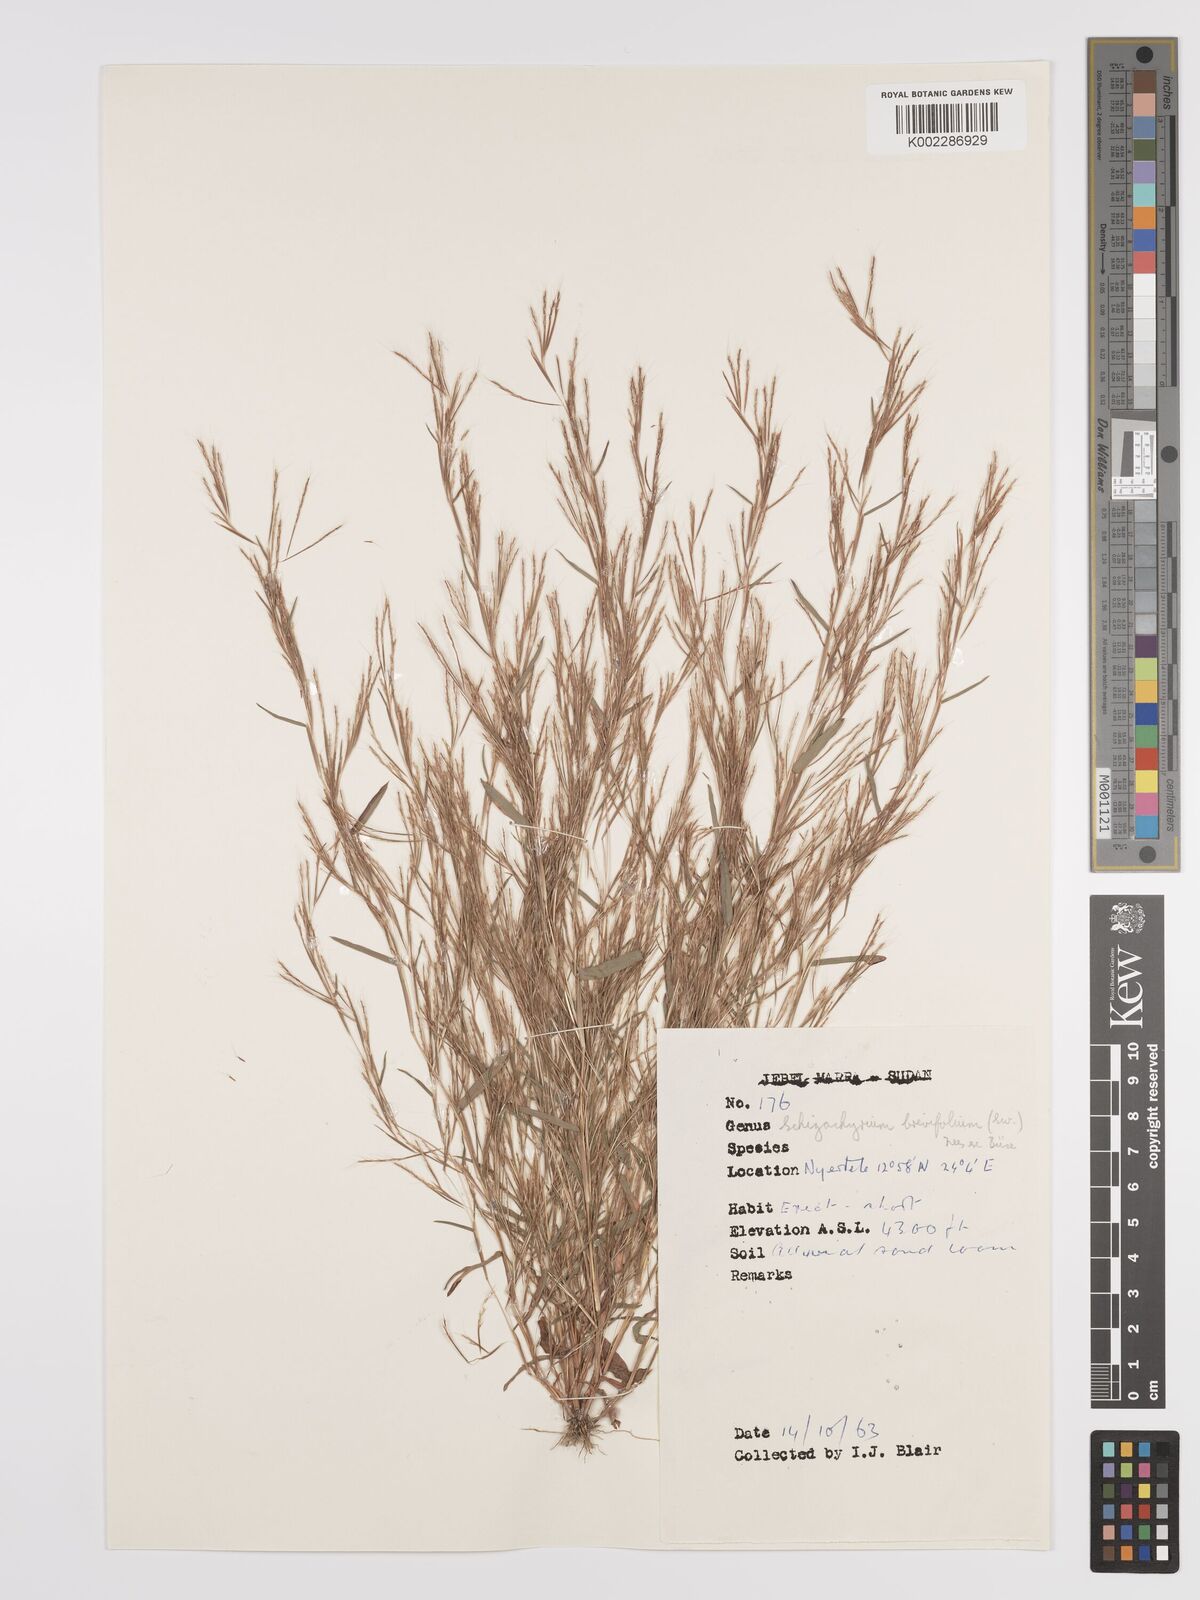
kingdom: Plantae
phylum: Tracheophyta
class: Liliopsida
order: Poales
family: Poaceae
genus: Schizachyrium
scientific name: Schizachyrium brevifolium
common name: Serillo dulce
